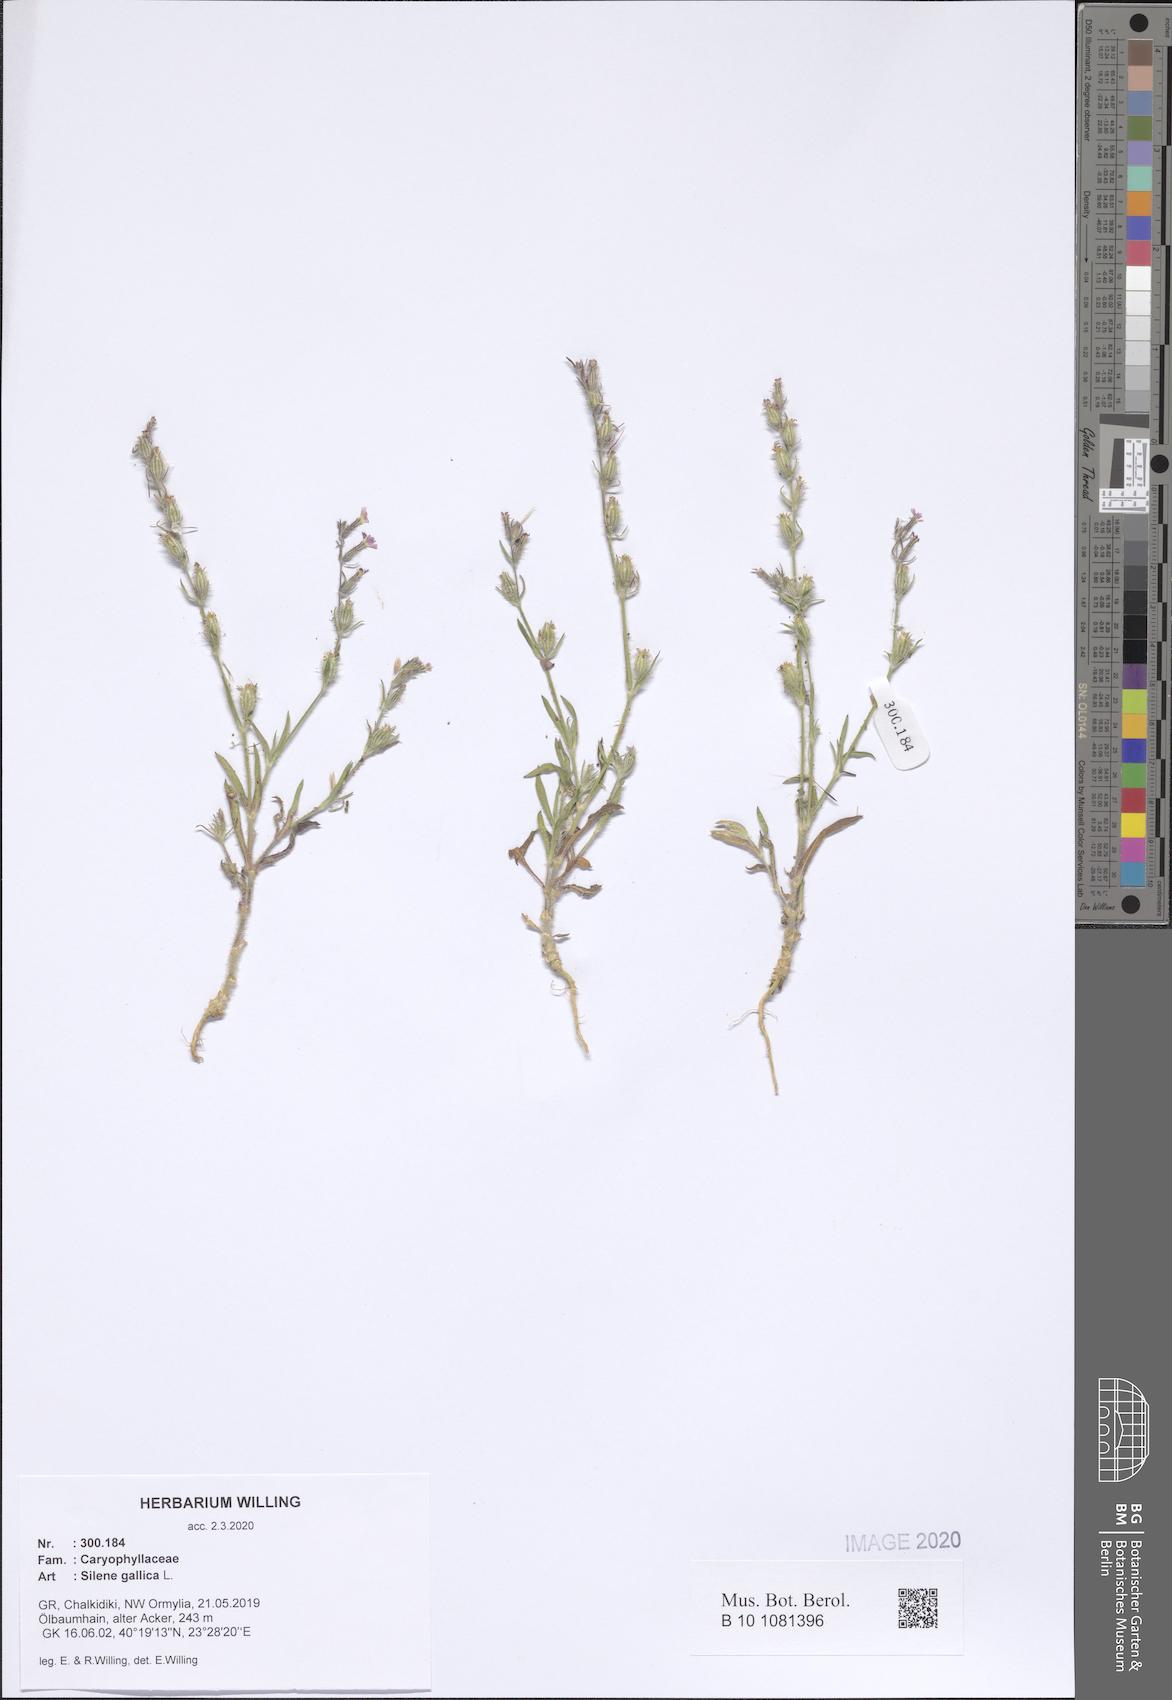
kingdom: Plantae
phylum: Tracheophyta
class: Magnoliopsida
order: Caryophyllales
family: Caryophyllaceae
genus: Silene
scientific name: Silene gallica
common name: Small-flowered catchfly
